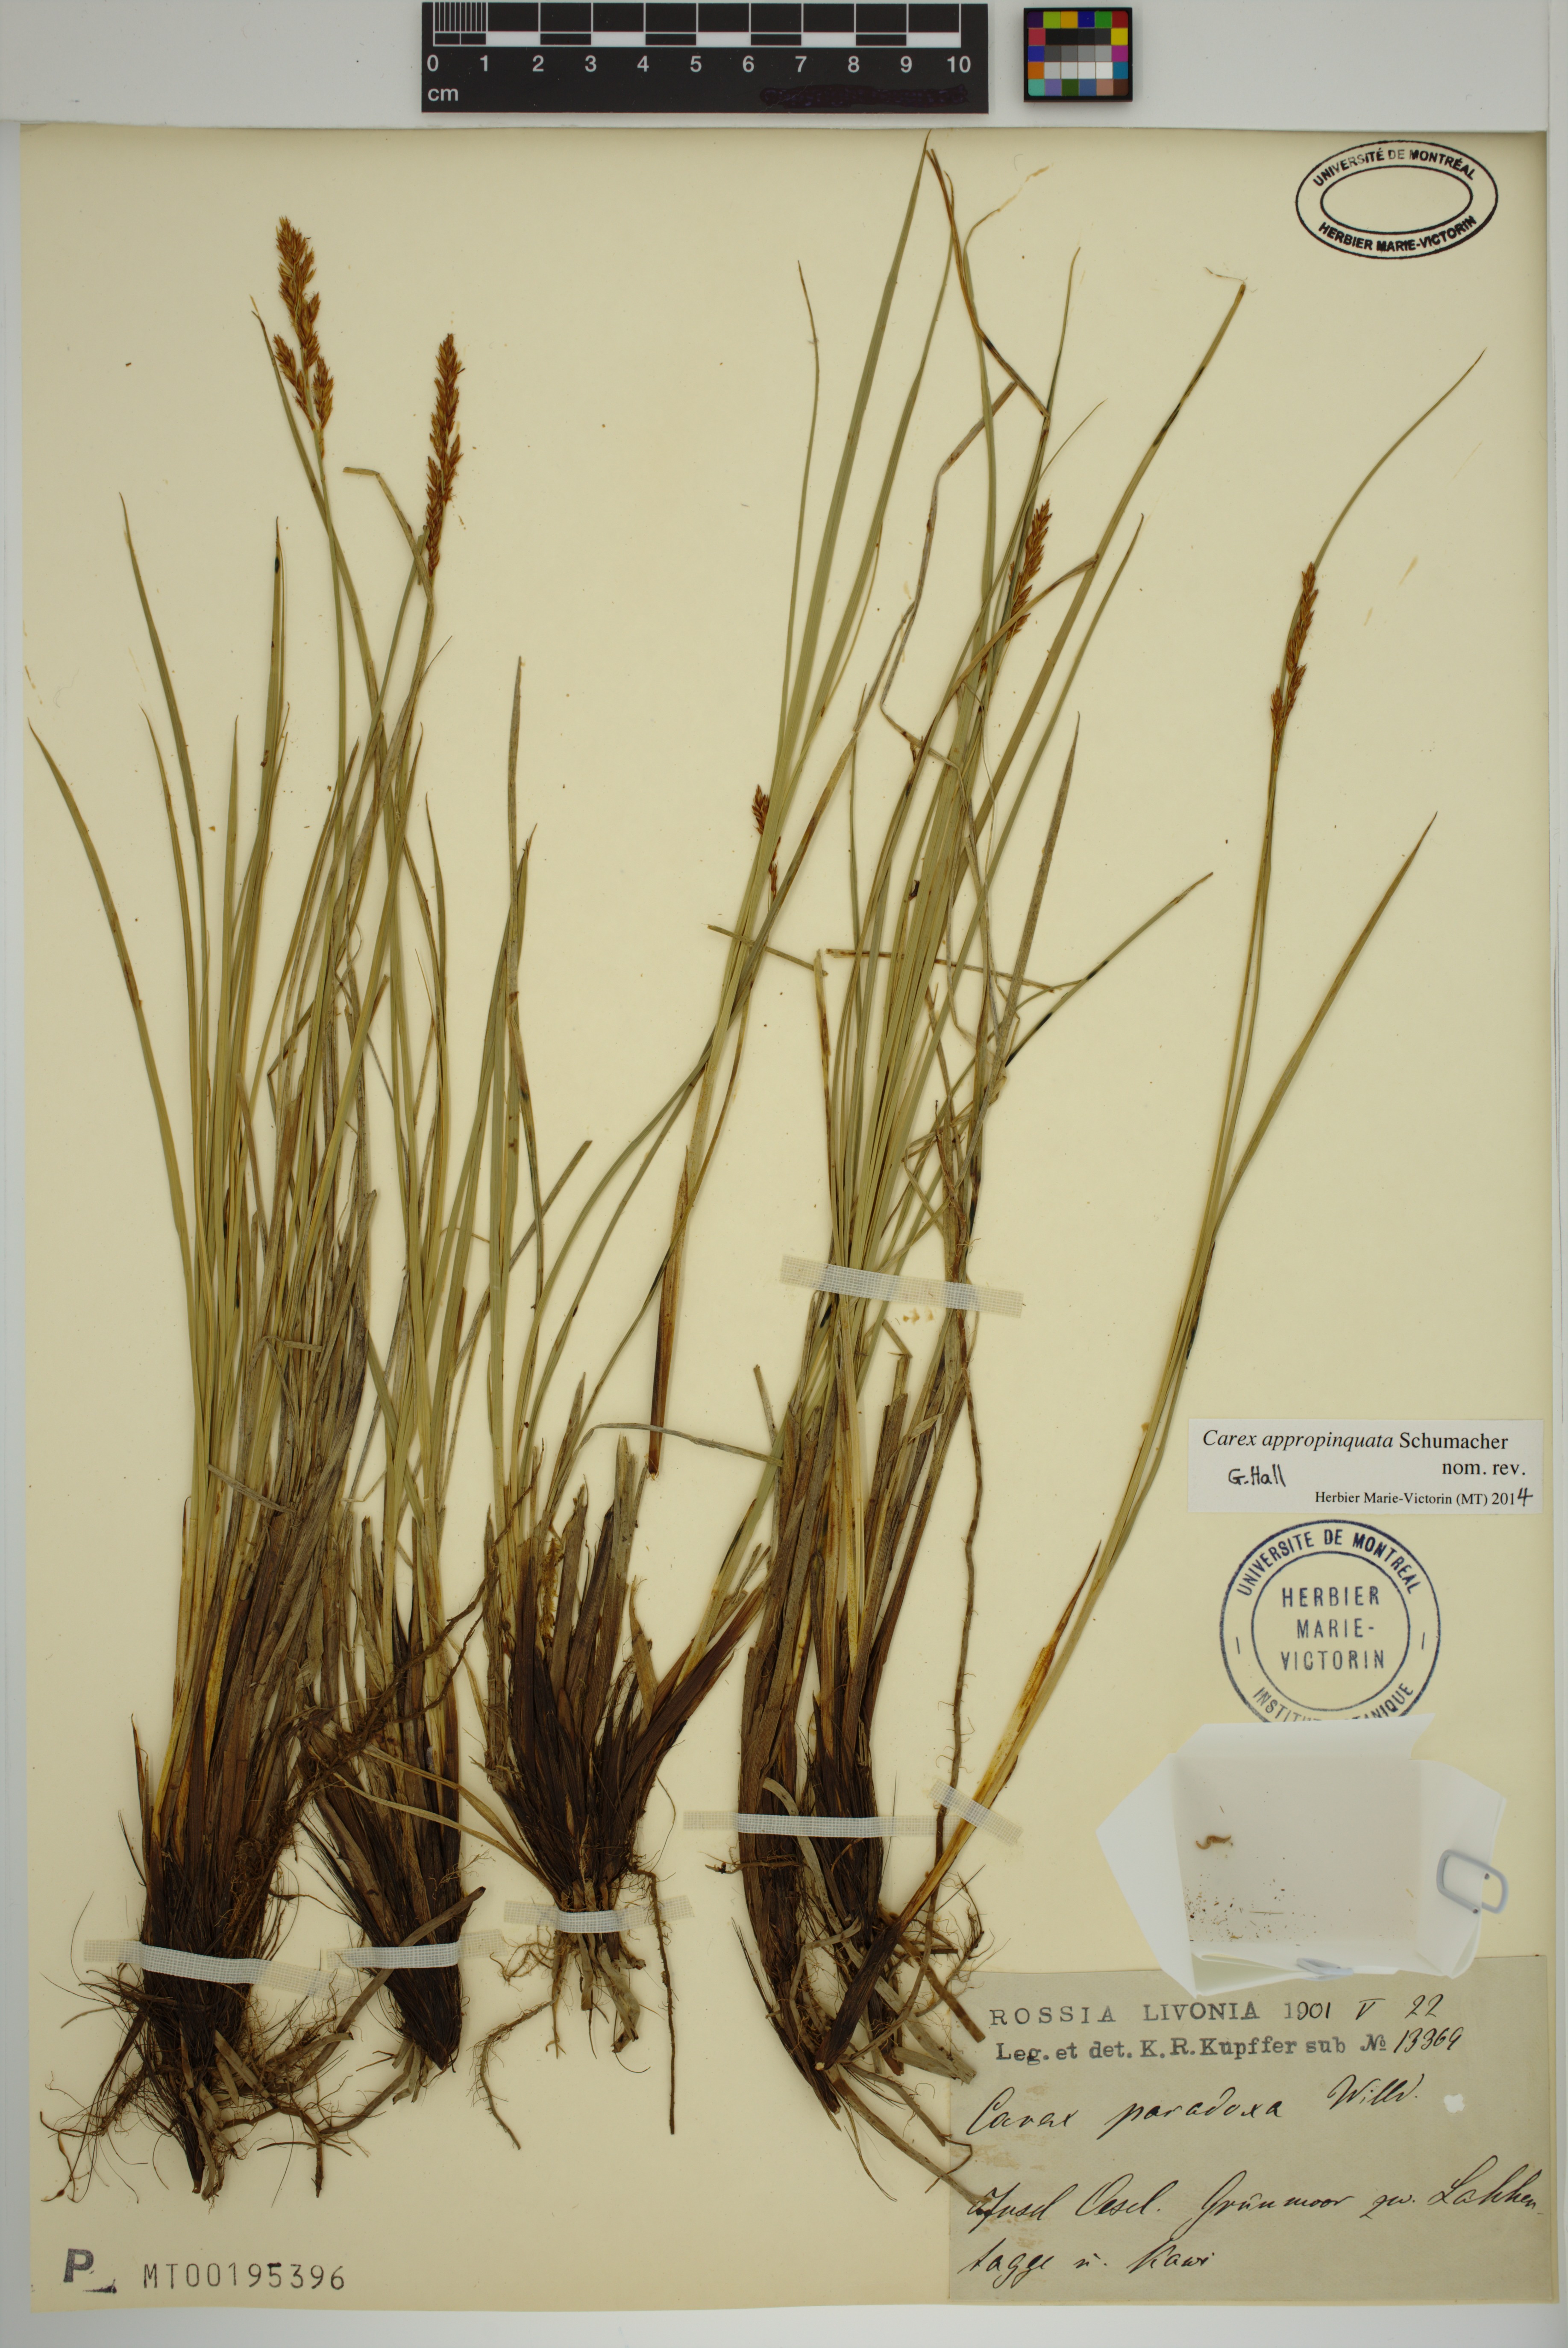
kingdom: Plantae
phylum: Tracheophyta
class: Liliopsida
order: Poales
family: Cyperaceae
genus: Carex
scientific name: Carex appropinquata
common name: Fibrous tussock-sedge
